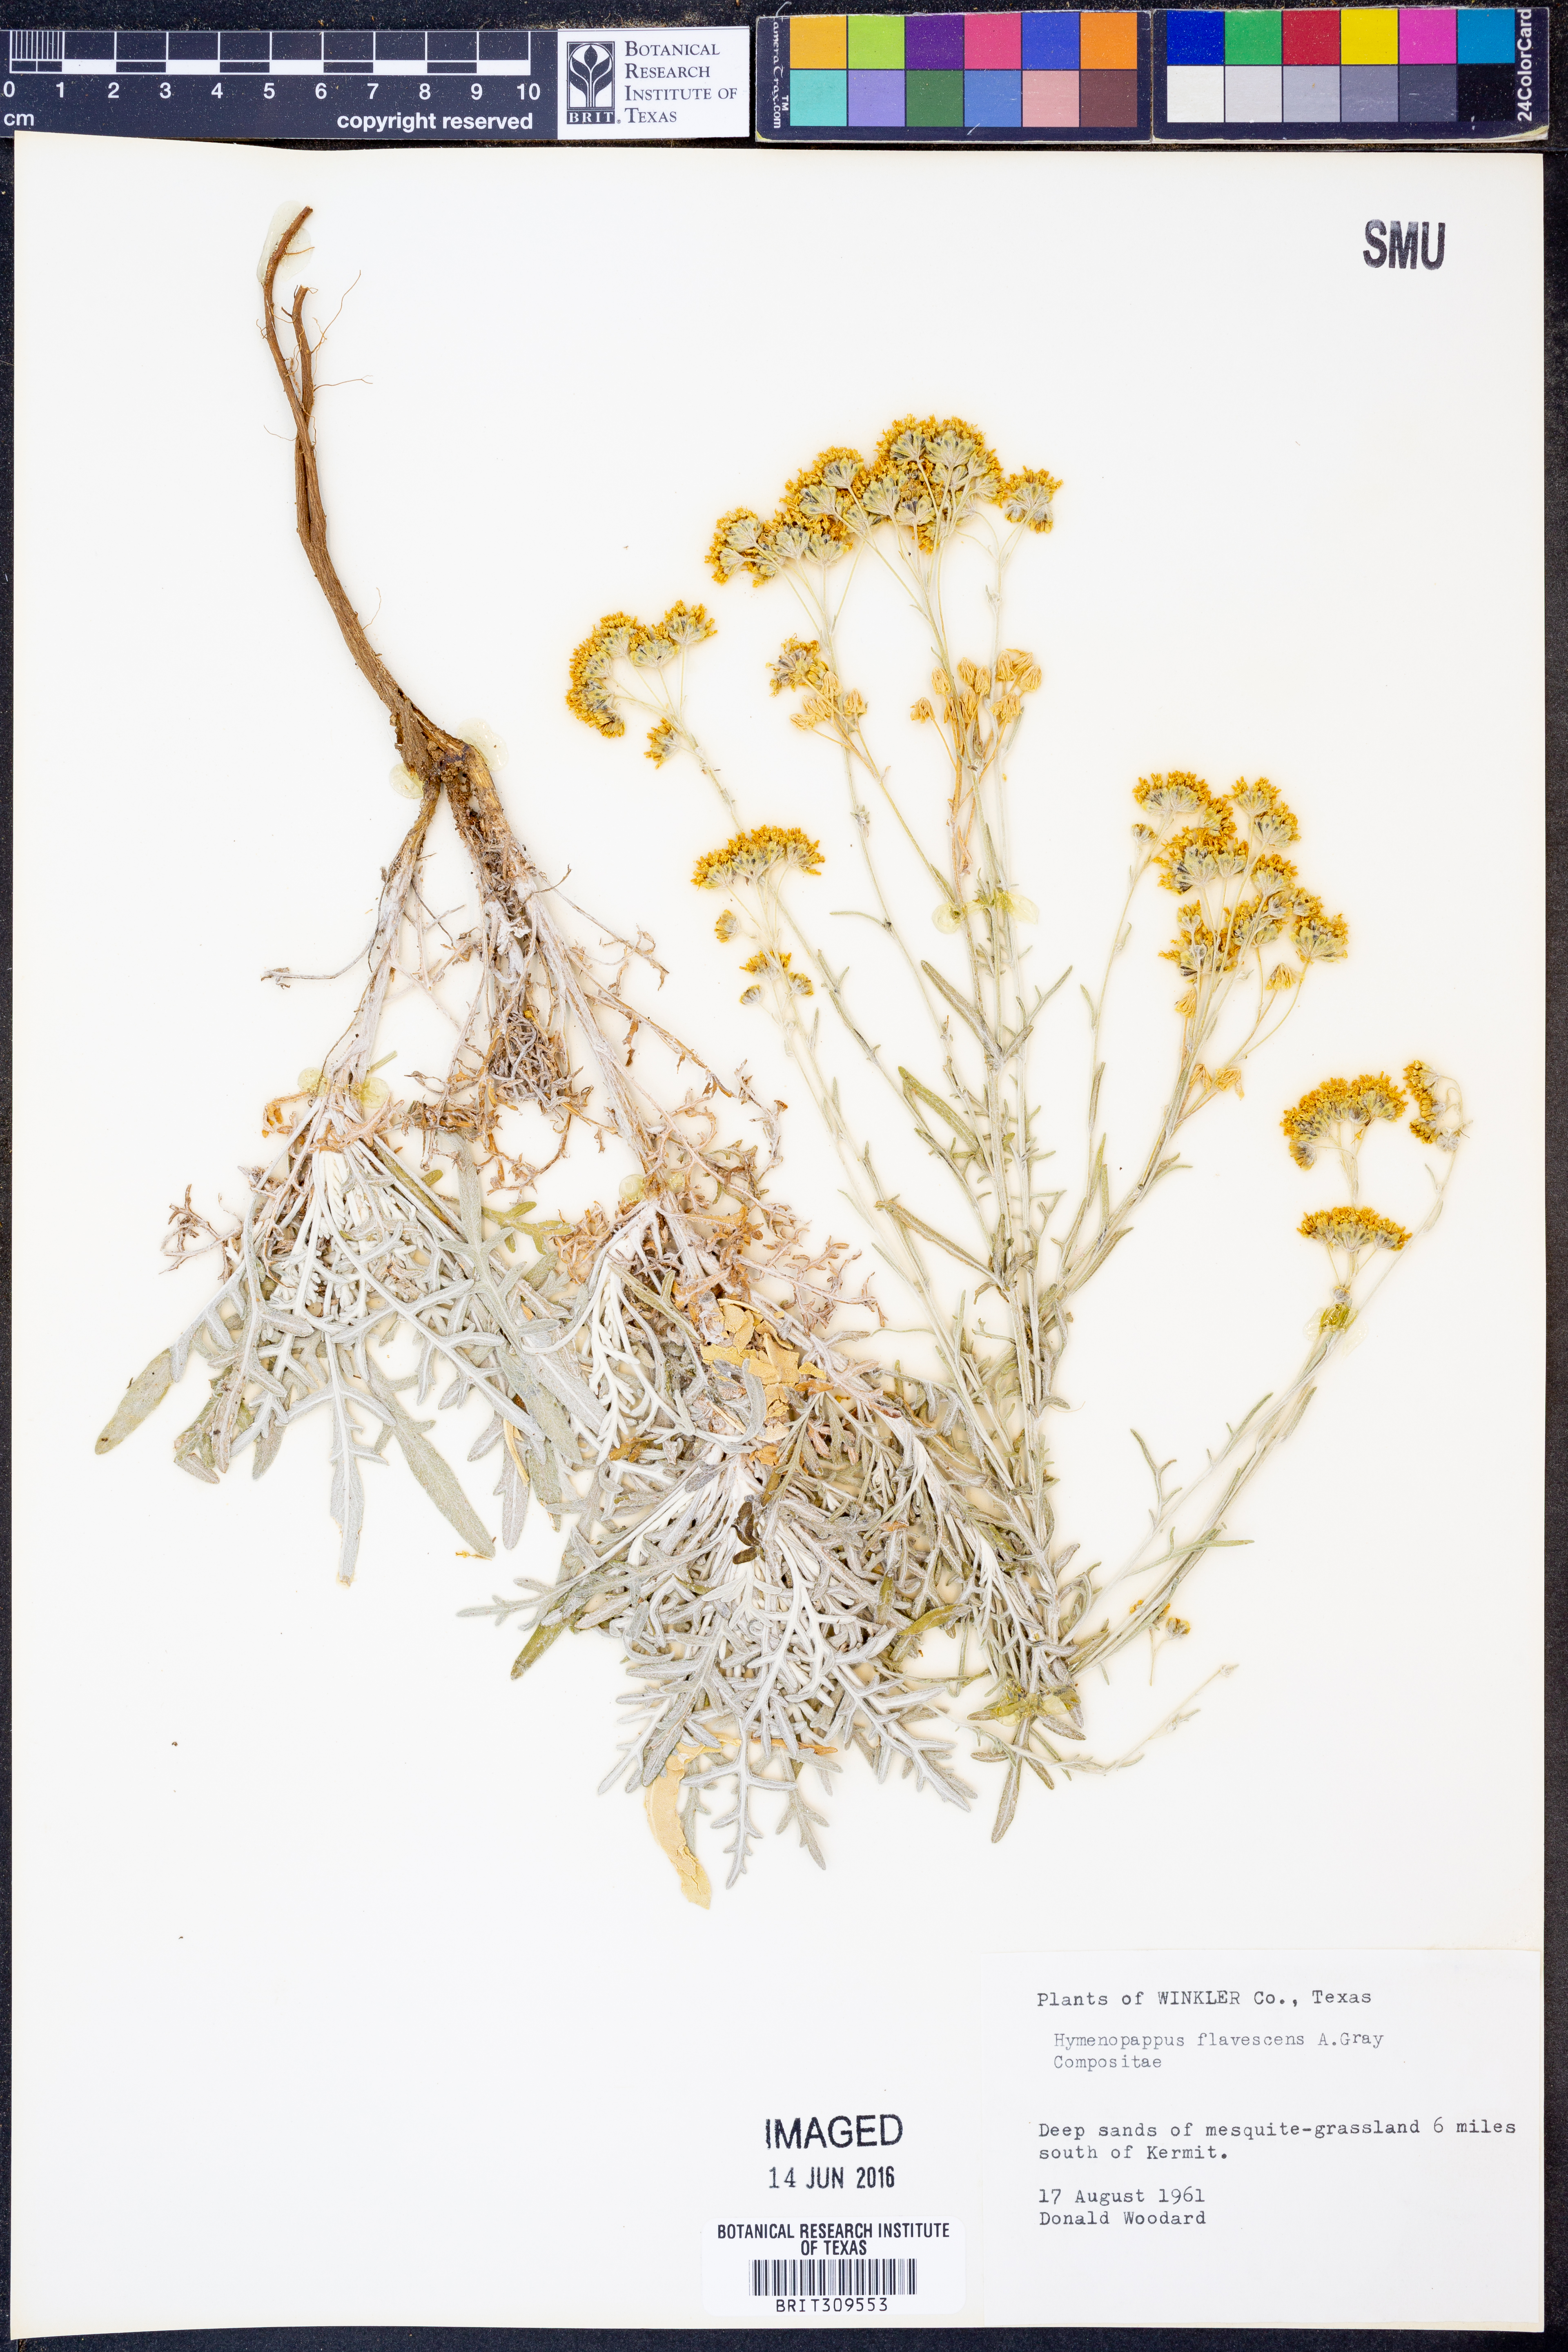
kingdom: Plantae
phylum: Tracheophyta
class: Magnoliopsida
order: Asterales
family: Asteraceae
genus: Hymenopappus
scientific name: Hymenopappus flavescens
